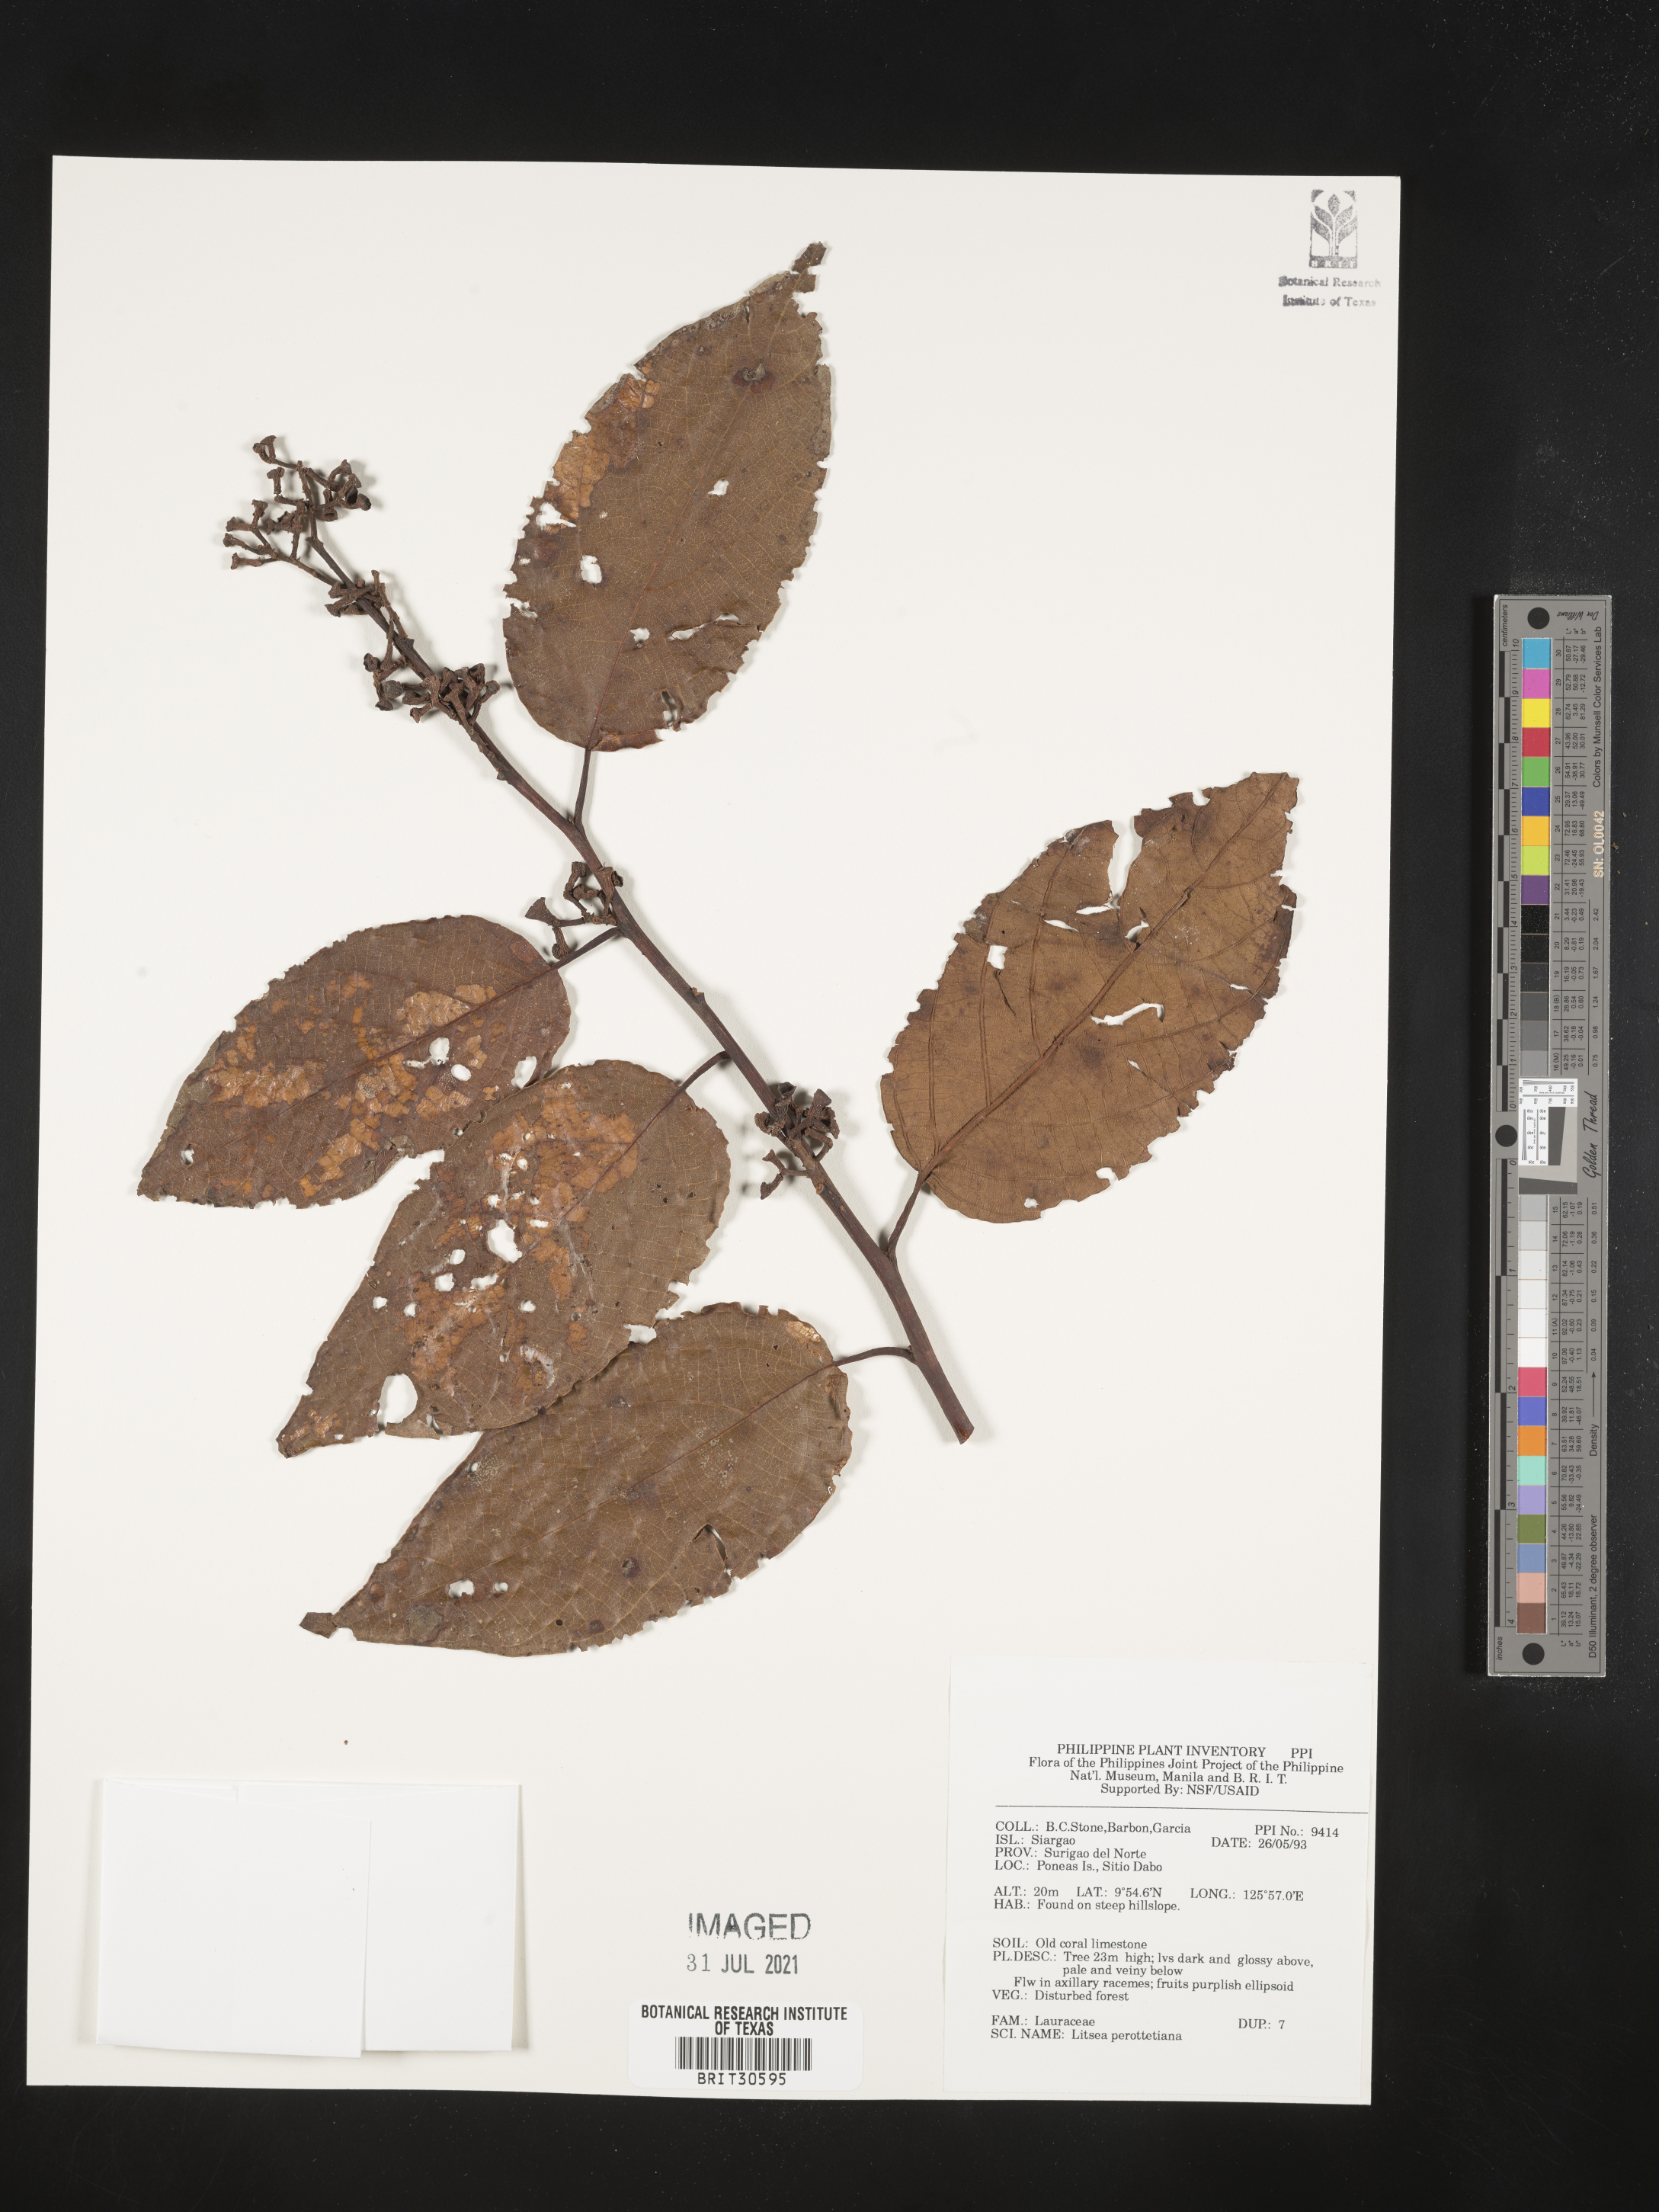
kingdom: Plantae
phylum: Tracheophyta
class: Magnoliopsida
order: Laurales
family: Lauraceae
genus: Litsea
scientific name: Litsea
